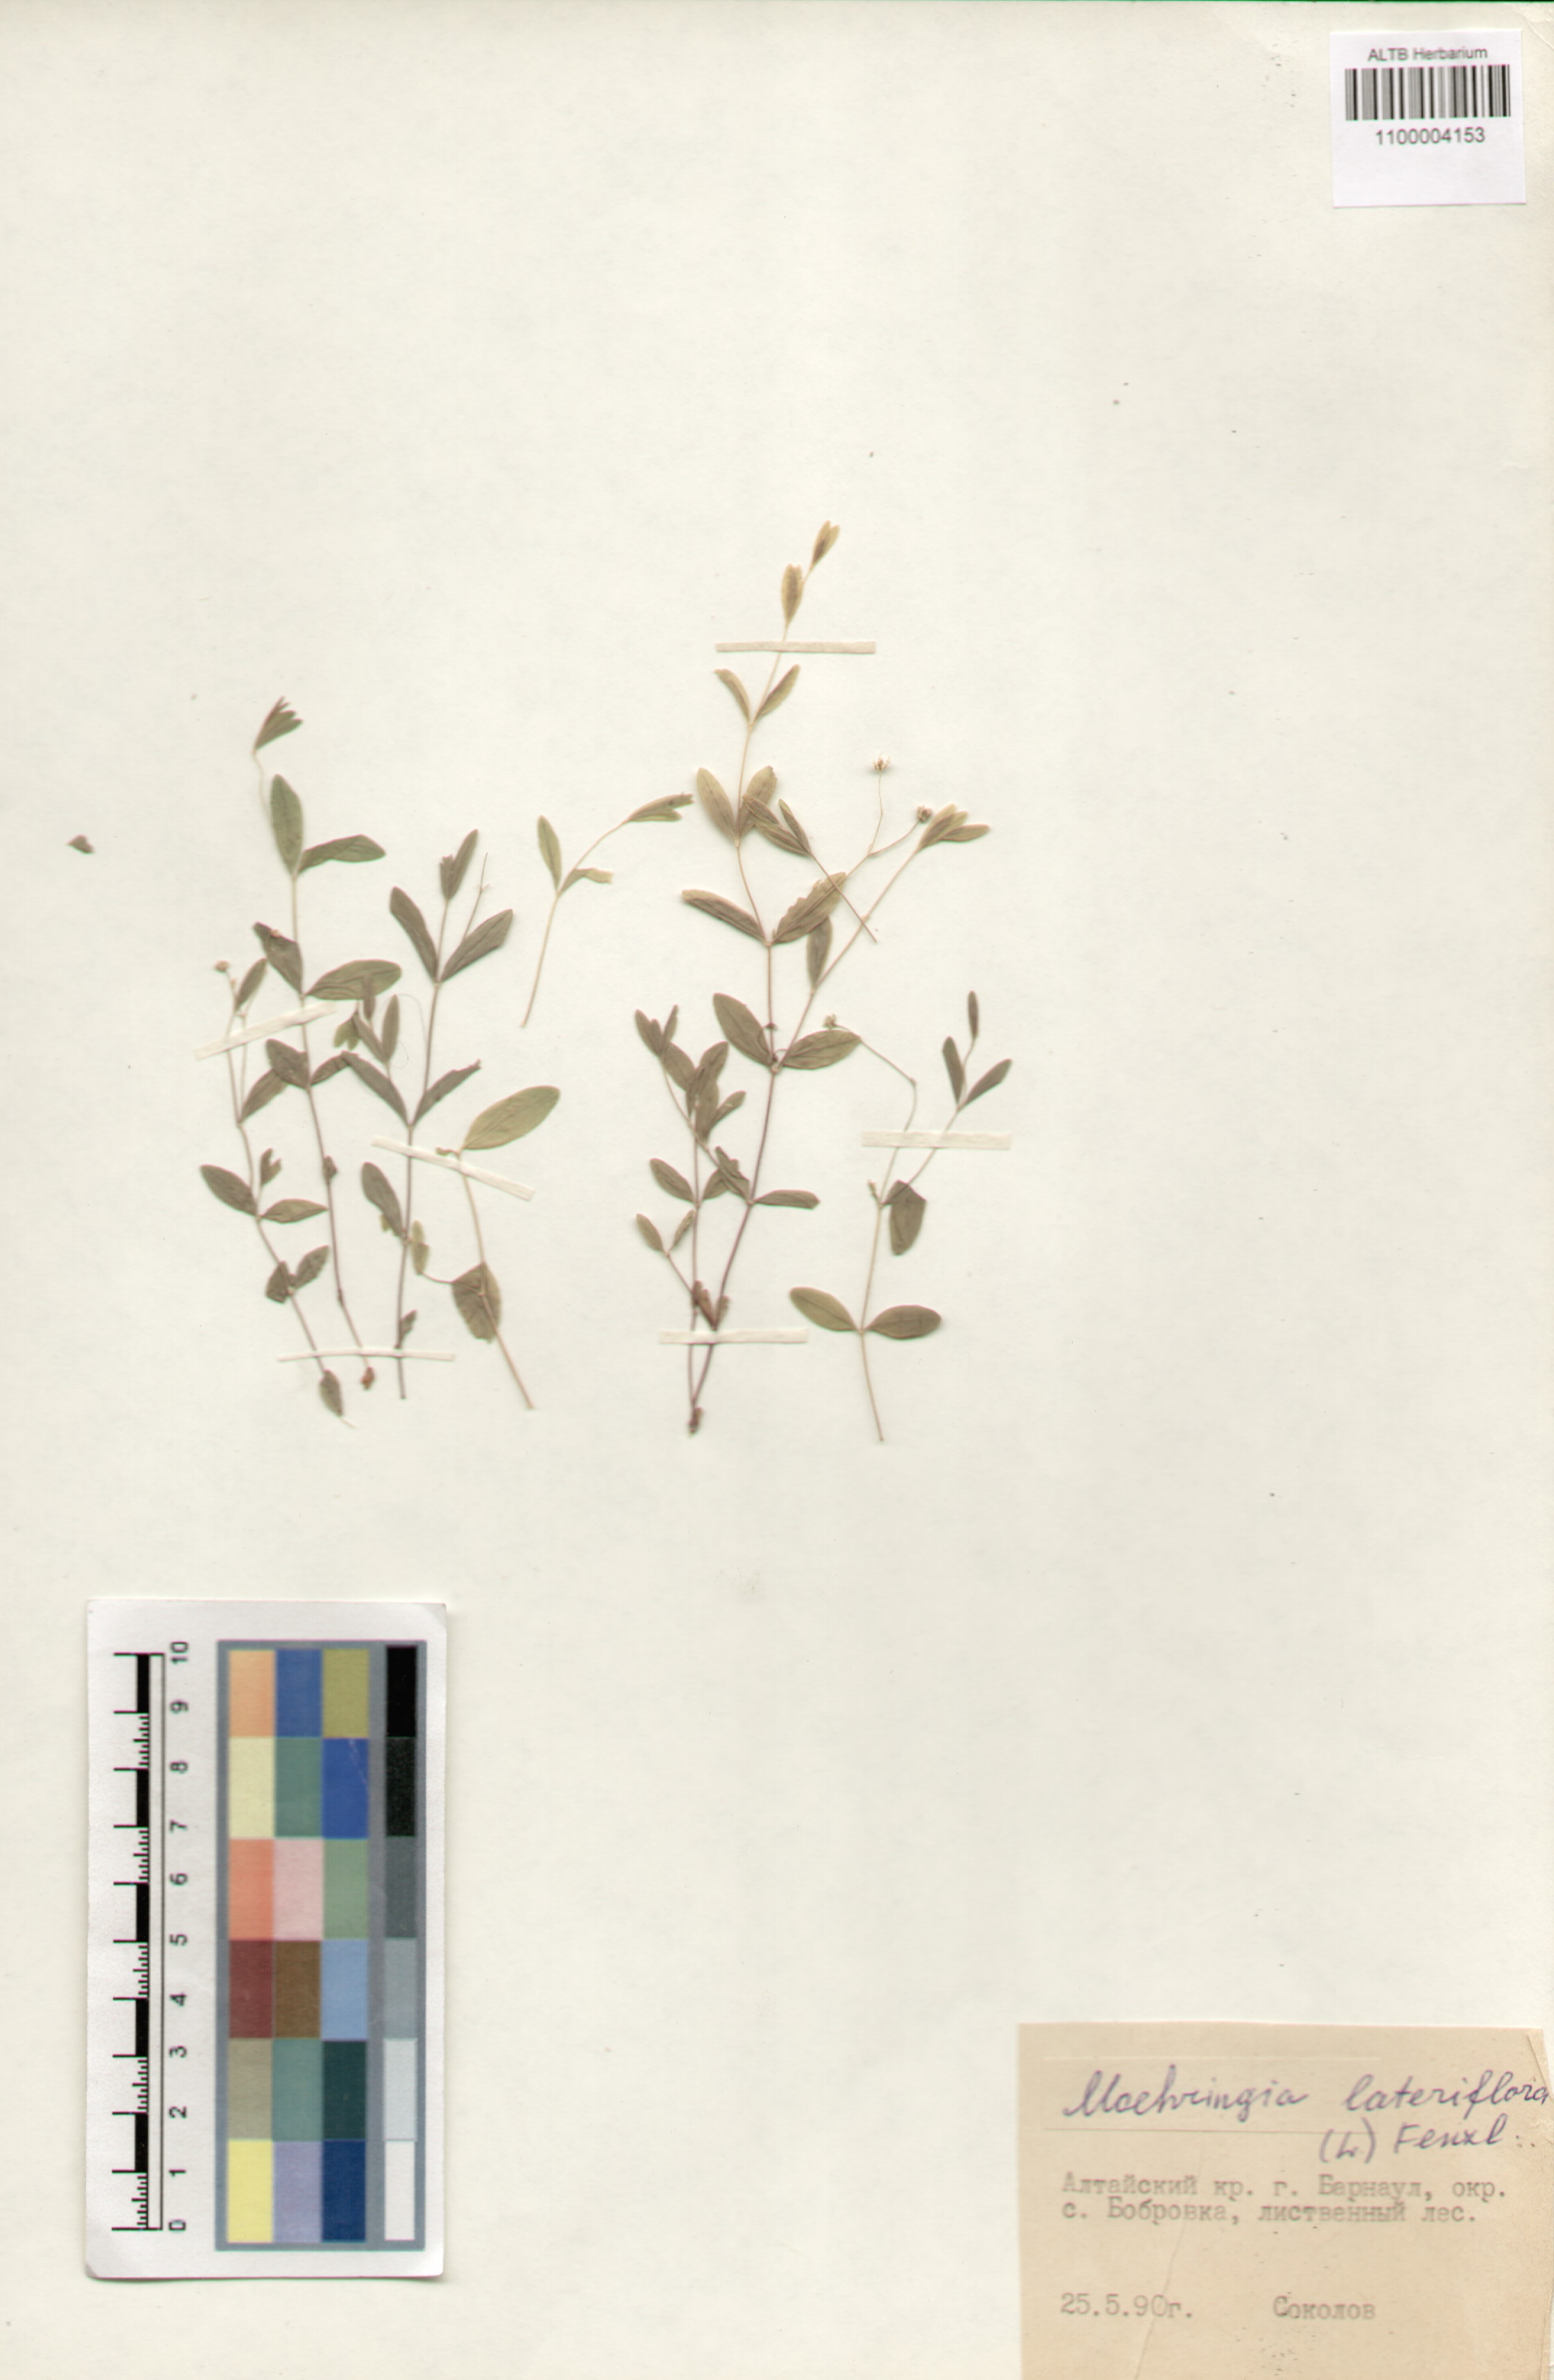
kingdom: Plantae
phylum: Tracheophyta
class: Magnoliopsida
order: Caryophyllales
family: Caryophyllaceae
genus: Moehringia
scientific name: Moehringia lateriflora
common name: Blunt-leaved sandwort
